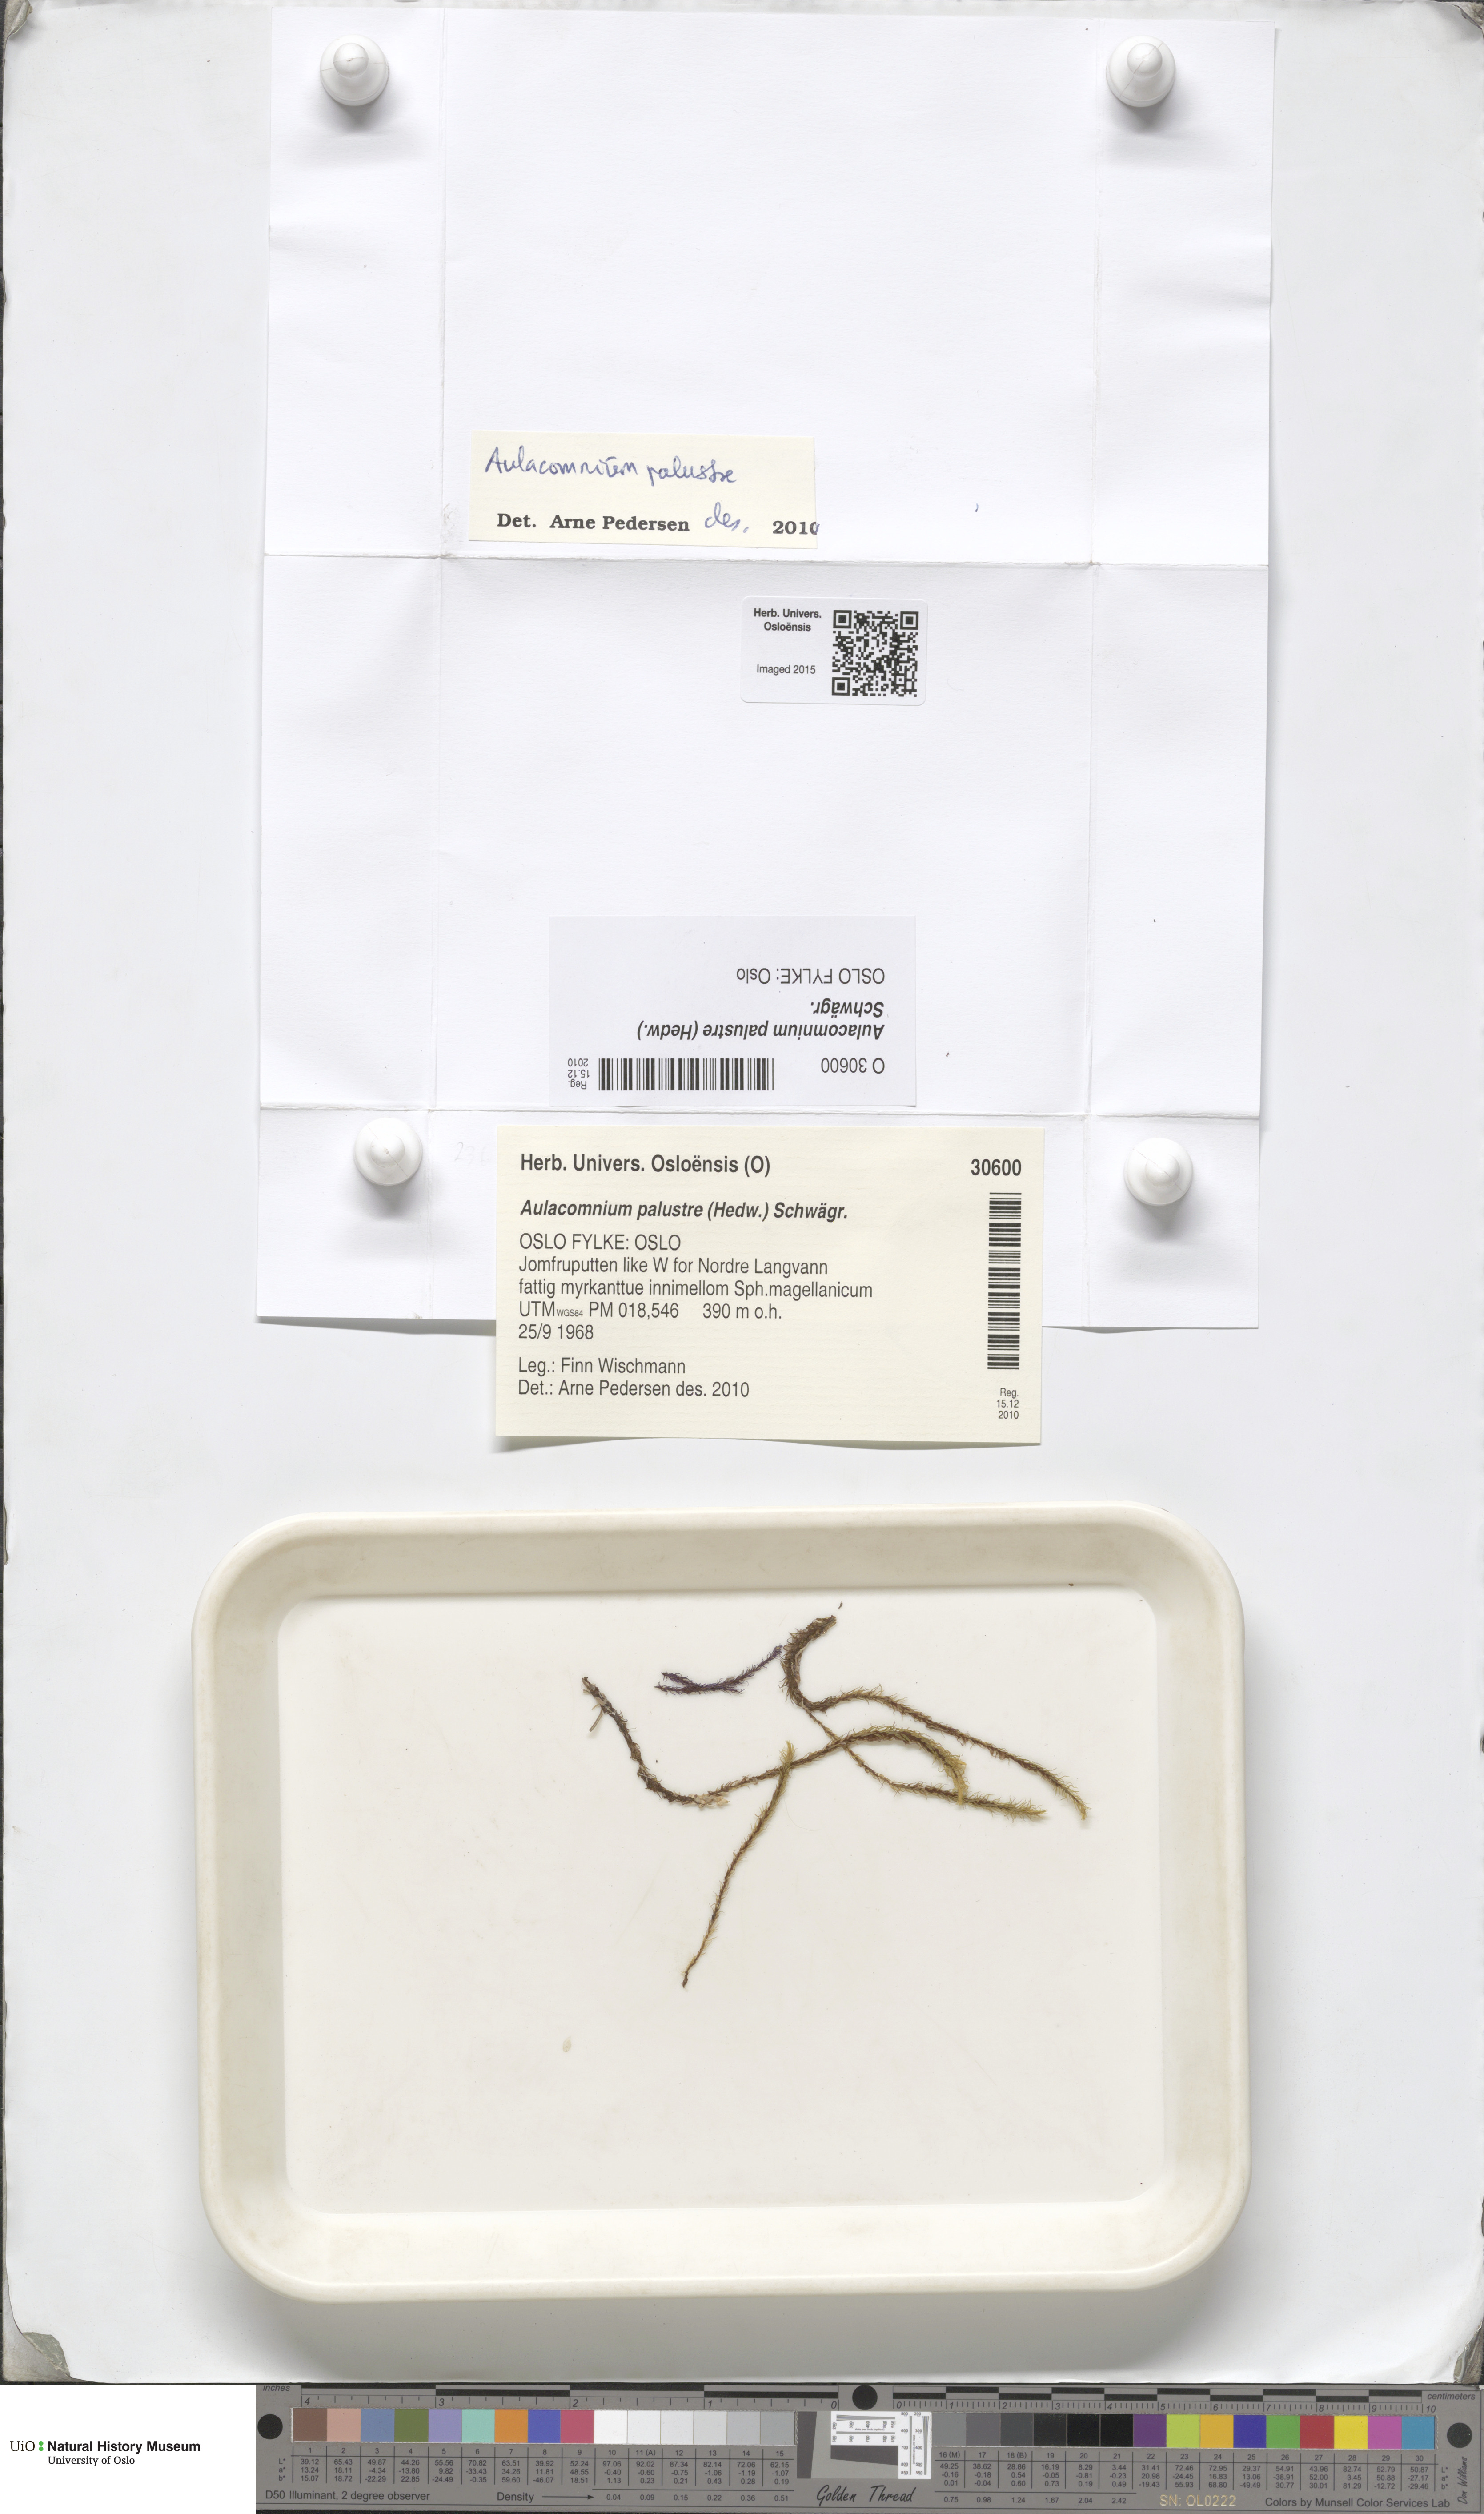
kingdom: Plantae
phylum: Bryophyta
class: Bryopsida
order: Aulacomniales
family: Aulacomniaceae
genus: Aulacomnium
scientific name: Aulacomnium palustre
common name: Bog groove-moss
